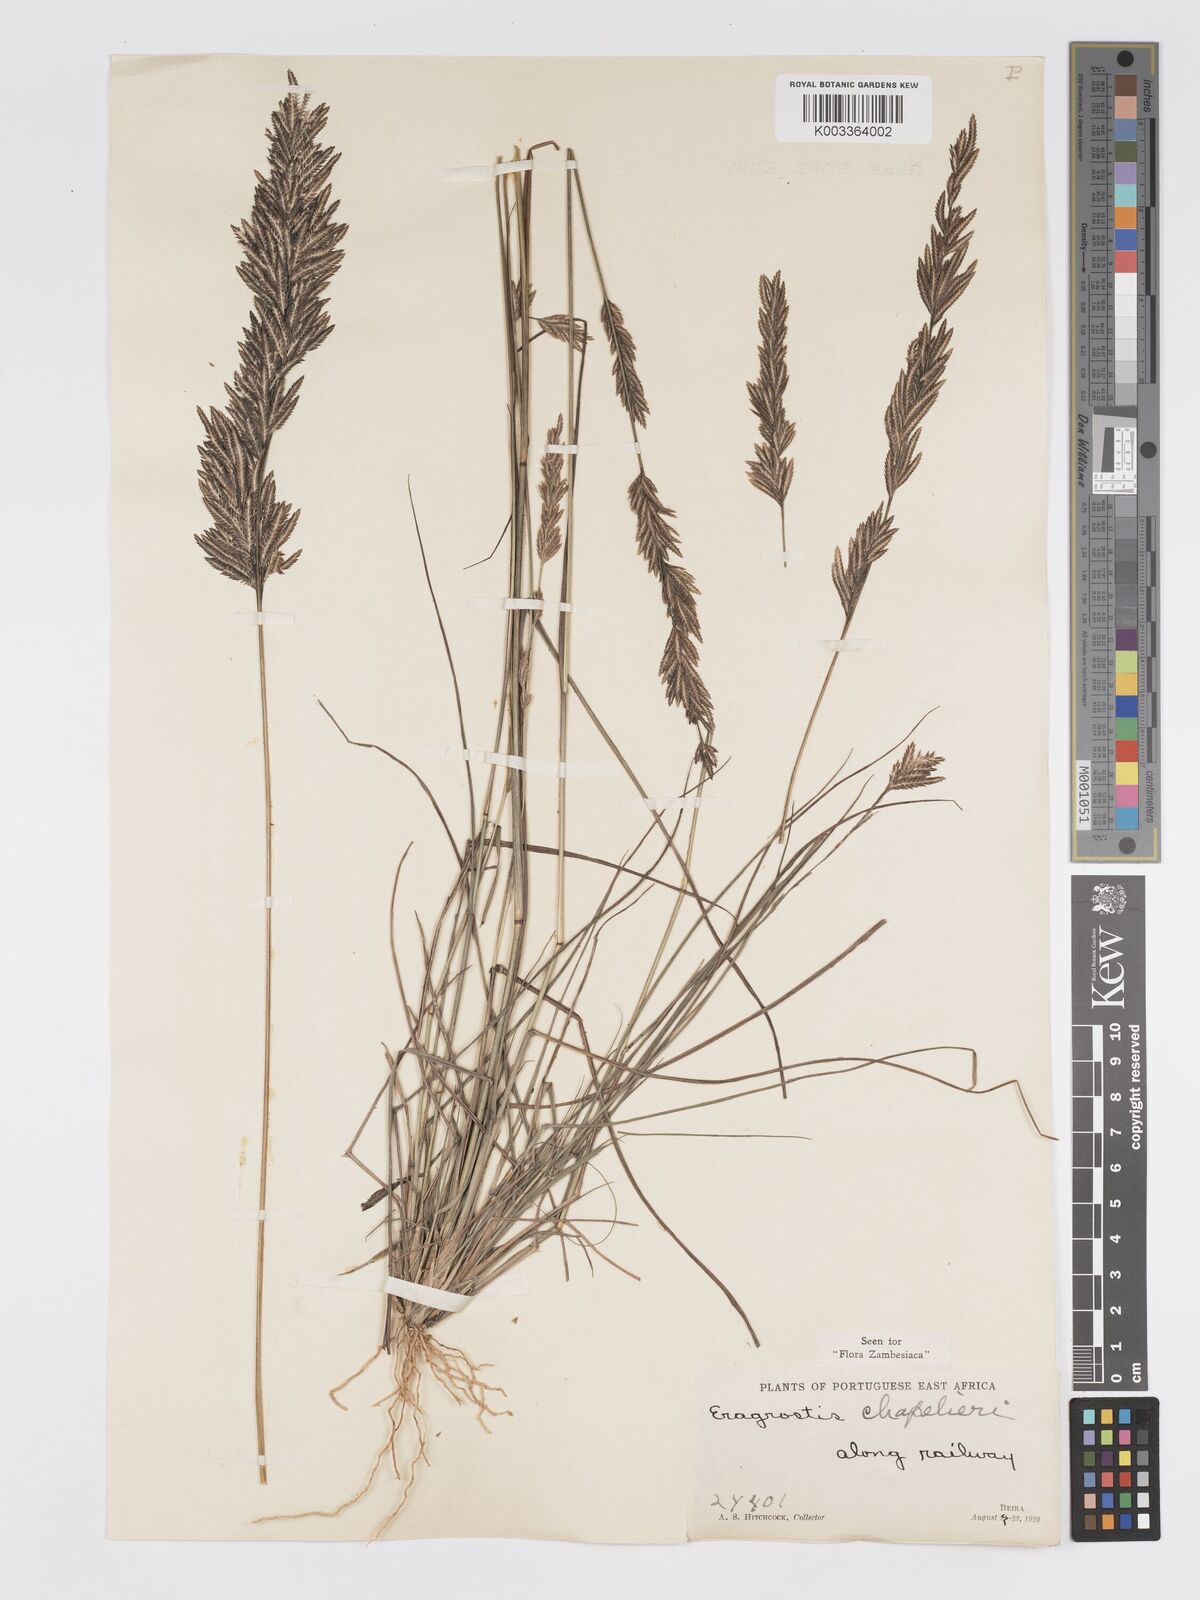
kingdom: Plantae
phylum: Tracheophyta
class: Liliopsida
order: Poales
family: Poaceae
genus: Eragrostis
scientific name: Eragrostis chapelieri
